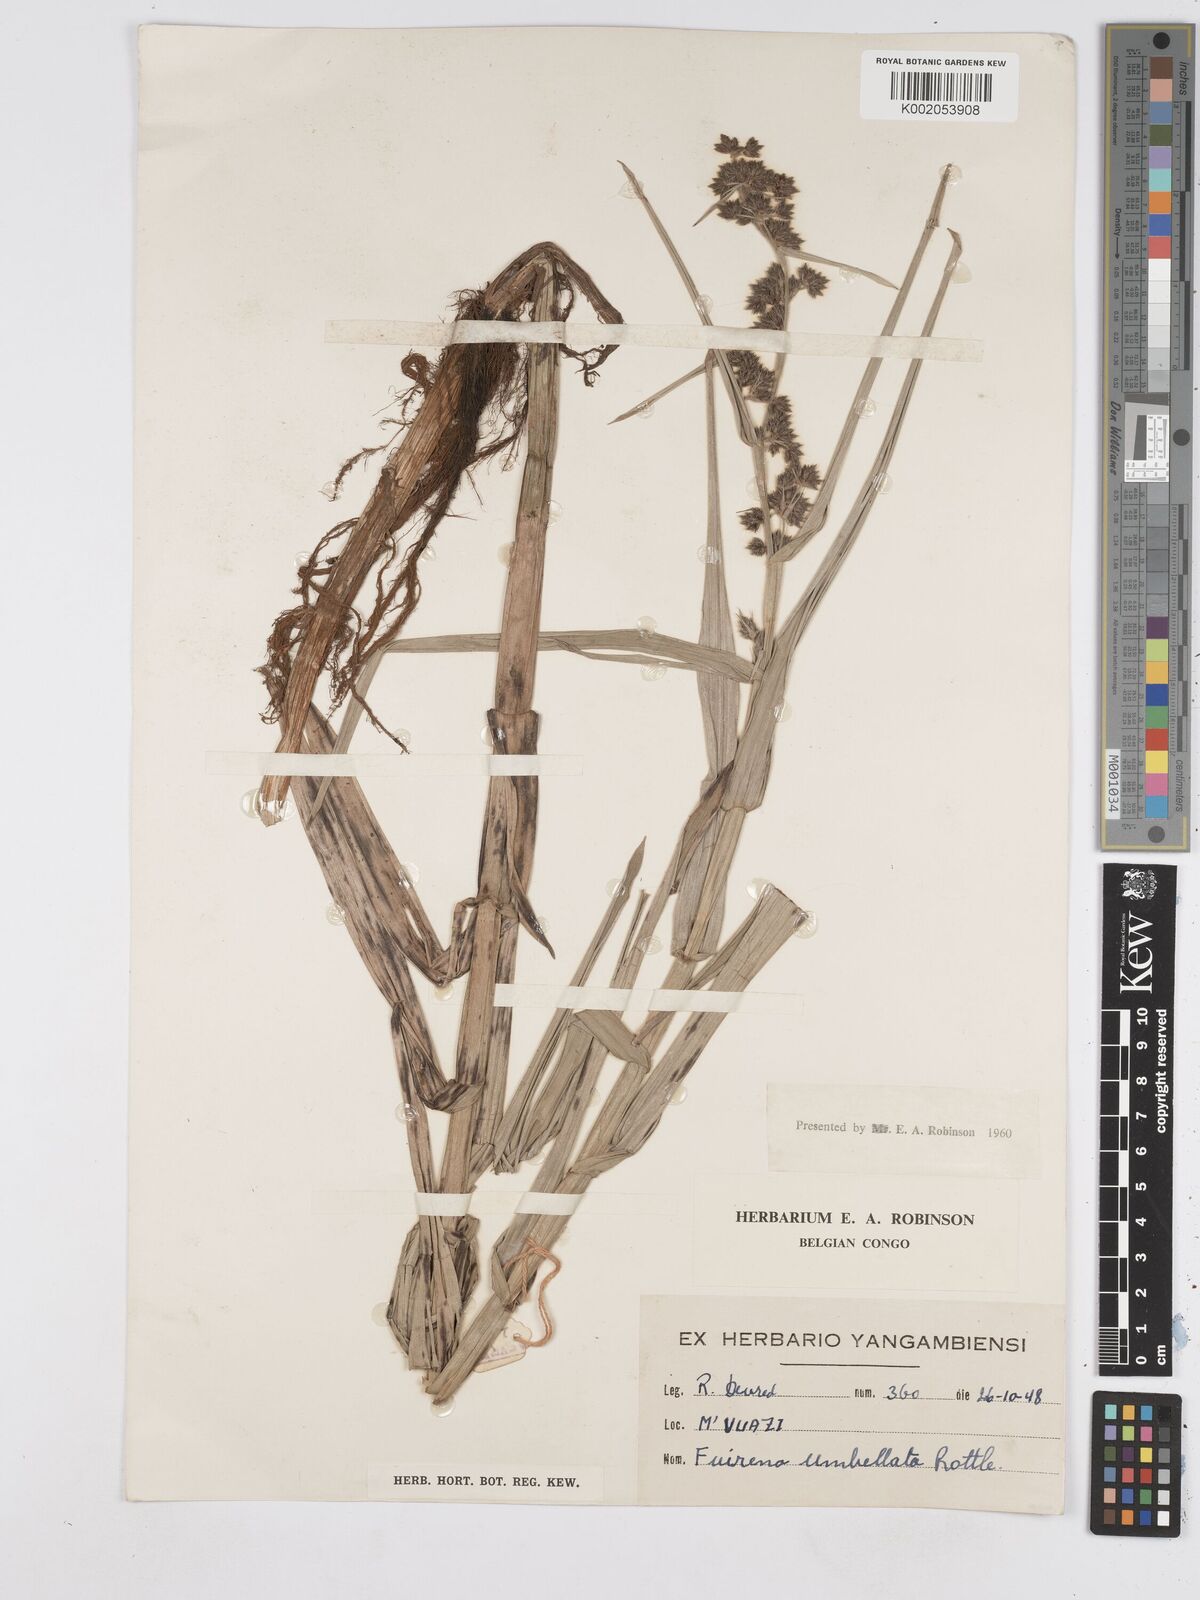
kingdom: Plantae
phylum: Tracheophyta
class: Liliopsida
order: Poales
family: Cyperaceae
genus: Fuirena
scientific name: Fuirena umbellata
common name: Yefen
